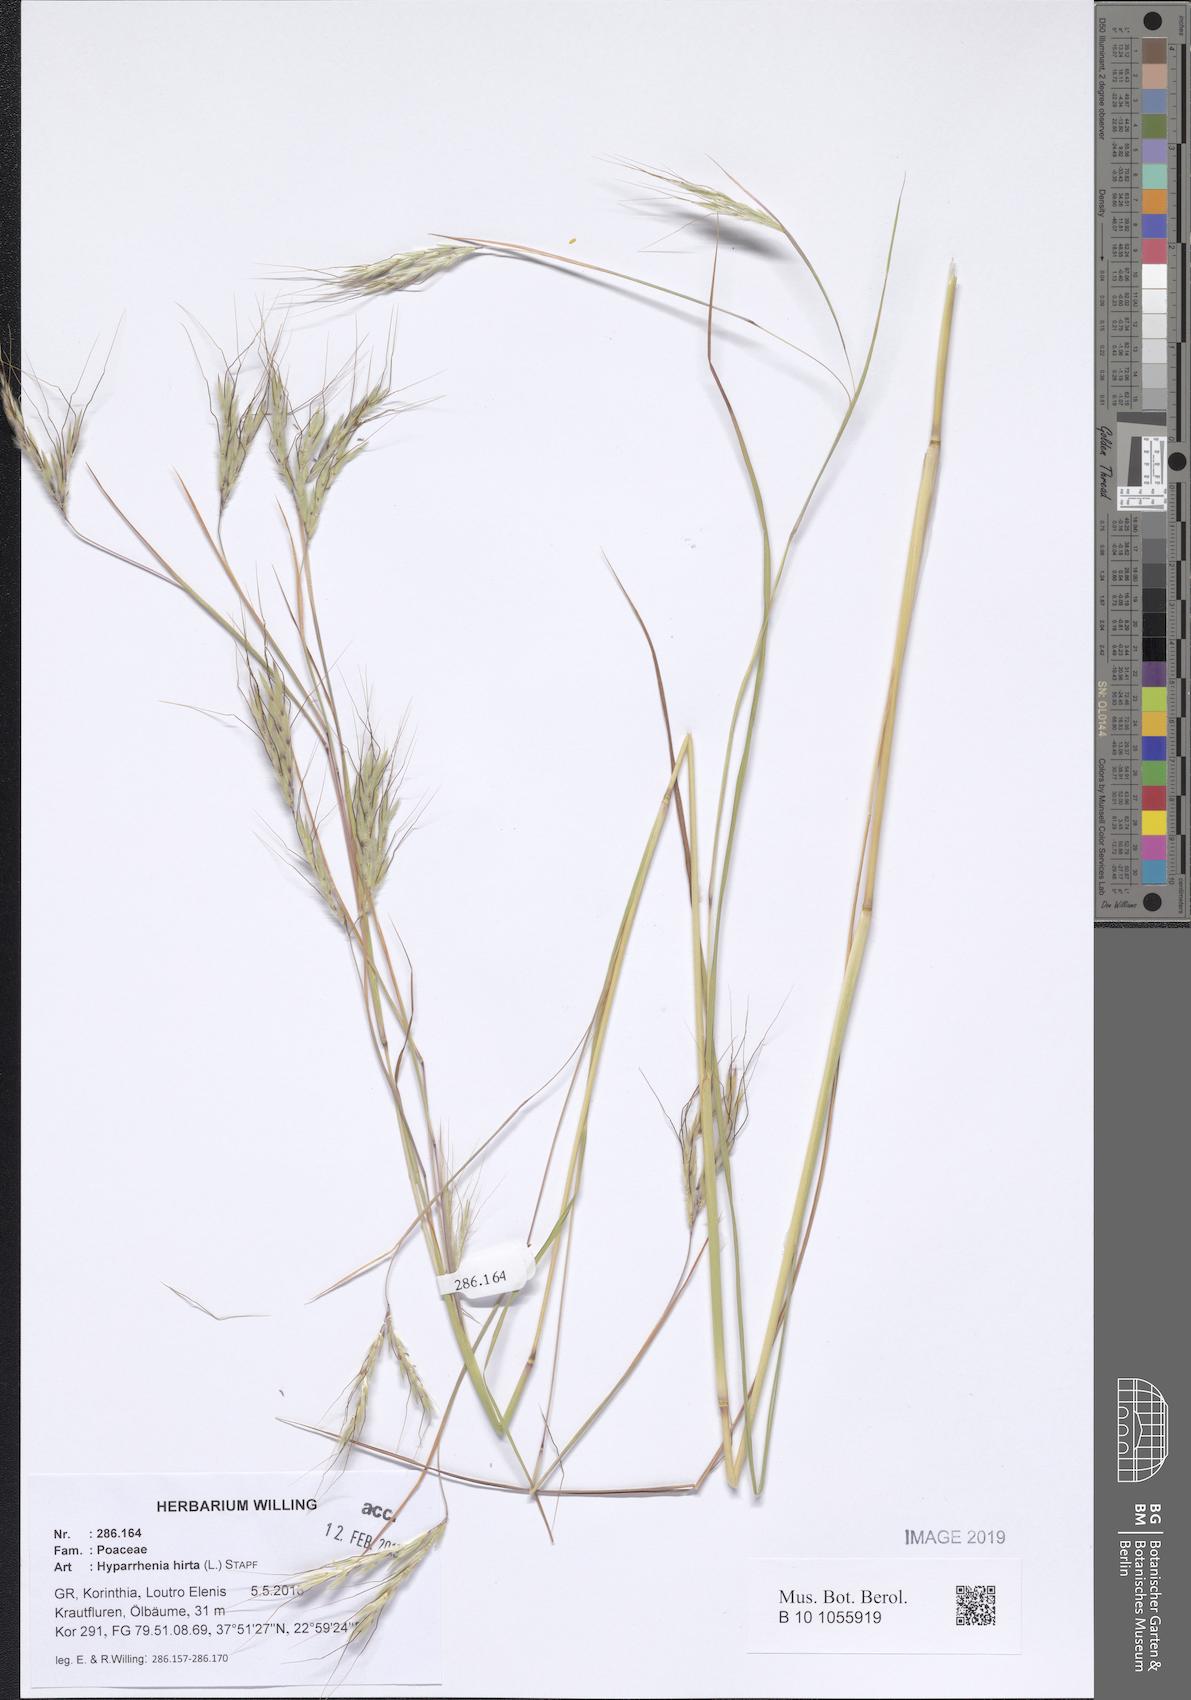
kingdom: Plantae
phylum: Tracheophyta
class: Liliopsida
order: Poales
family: Poaceae
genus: Hyparrhenia
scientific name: Hyparrhenia hirta
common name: Thatching grass
